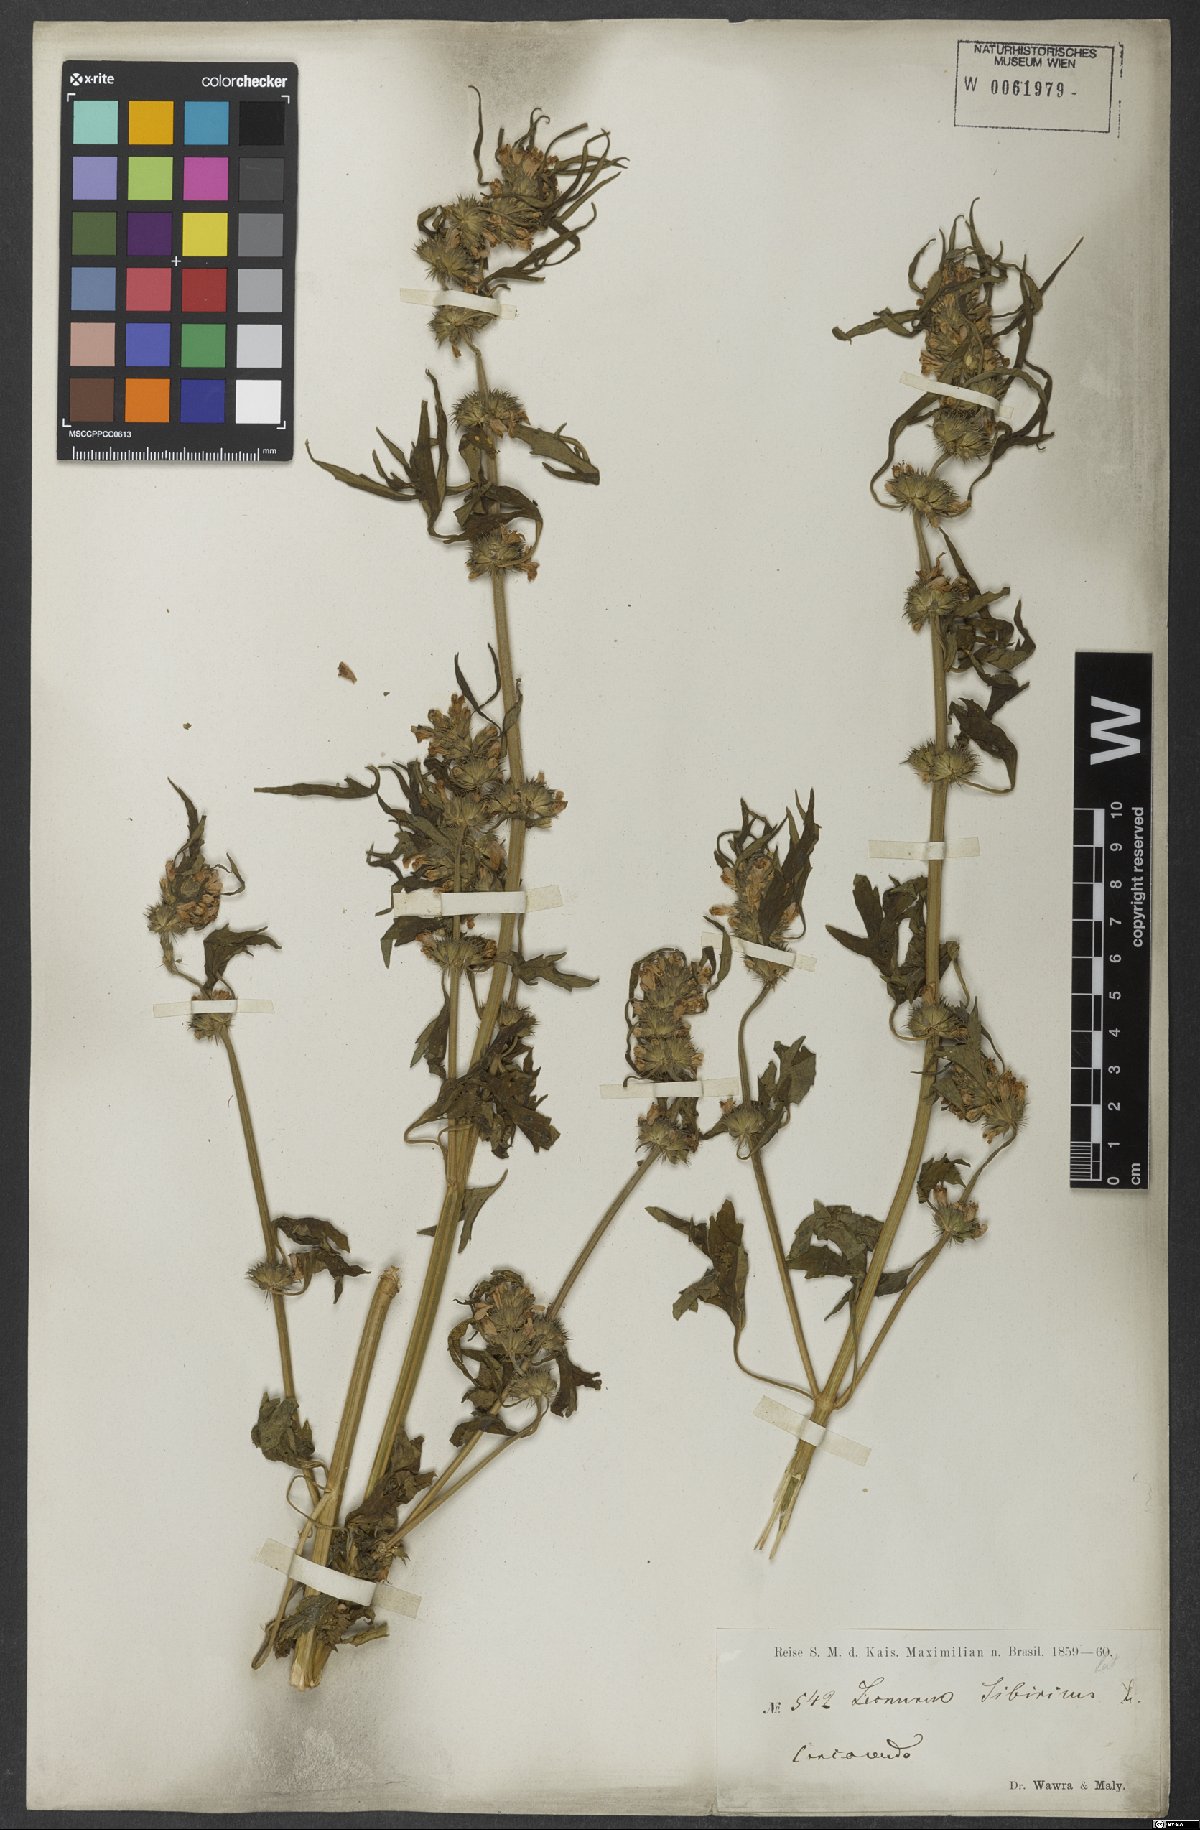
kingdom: Plantae
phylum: Tracheophyta
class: Magnoliopsida
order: Lamiales
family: Lamiaceae
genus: Leonurus
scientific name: Leonurus sibiricus
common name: Honeyweed
